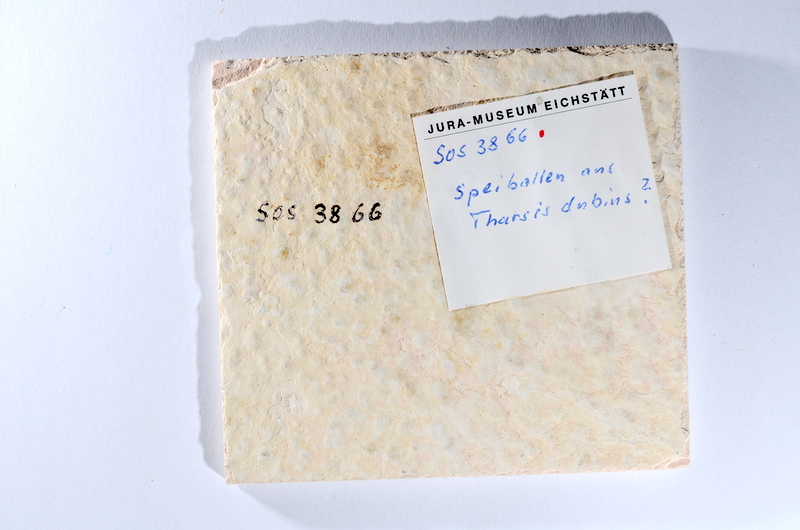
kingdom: Animalia
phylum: Chordata
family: Ascalaboidae
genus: Tharsis
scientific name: Tharsis dubius
